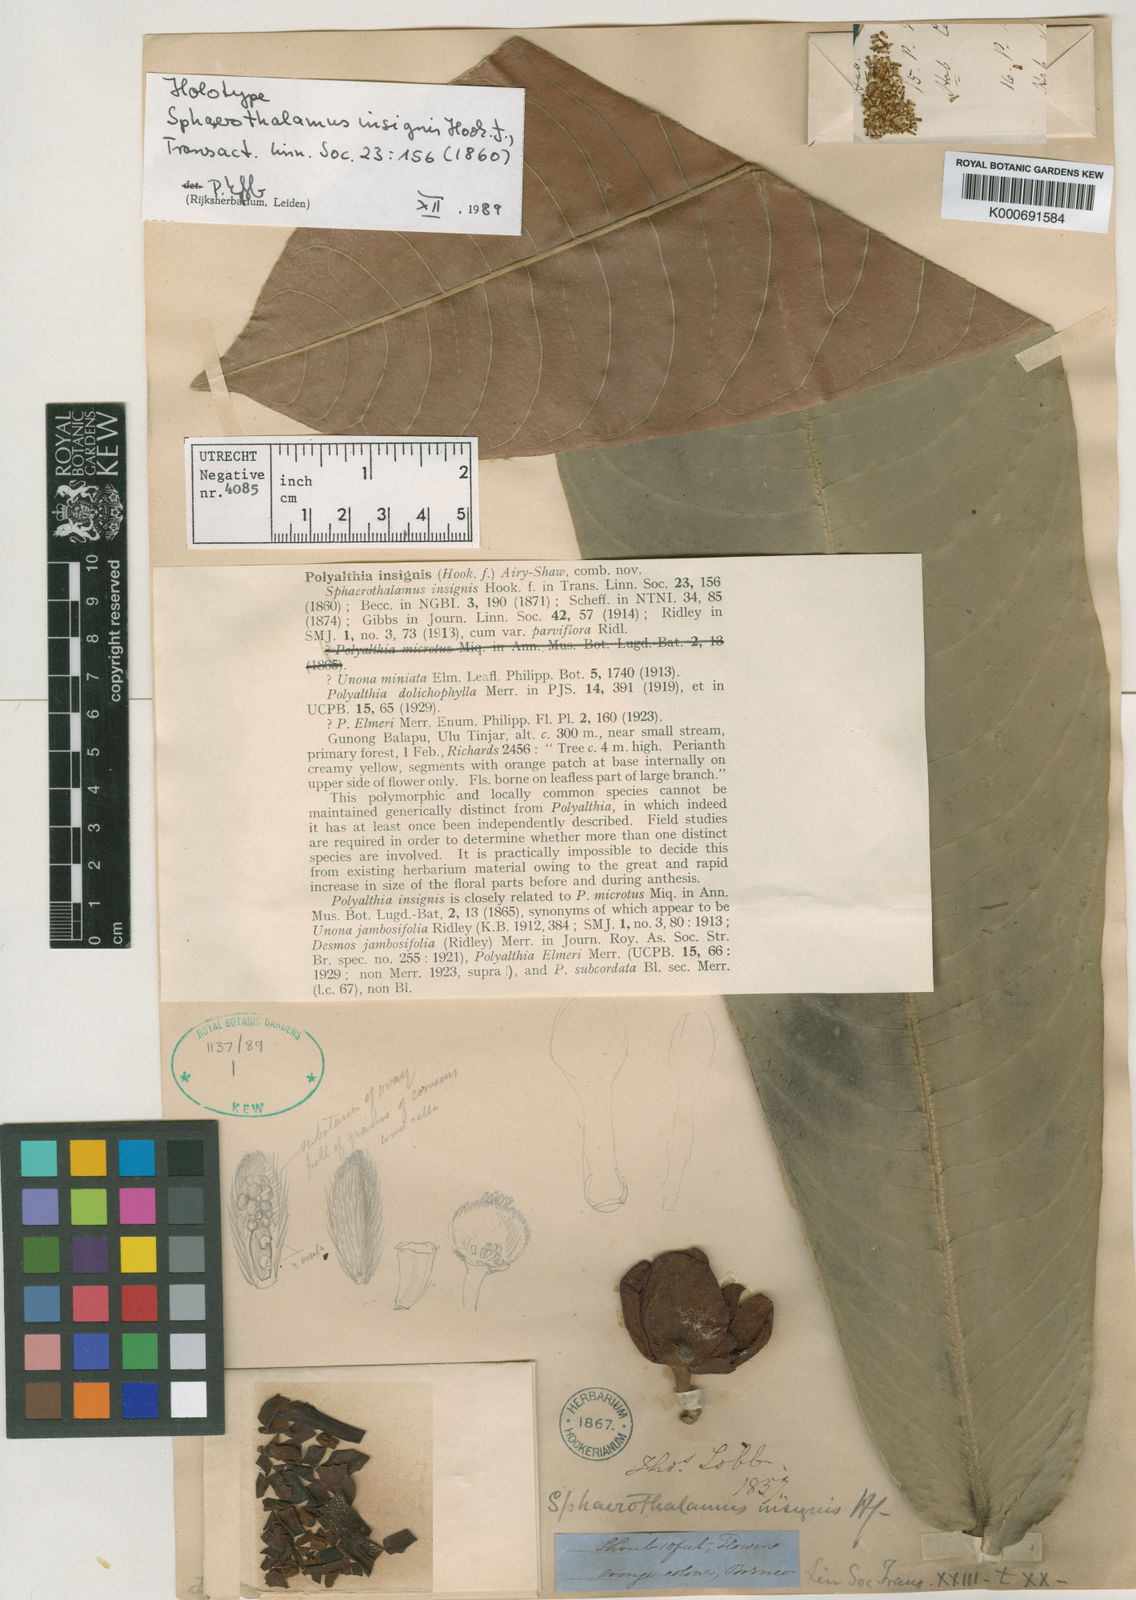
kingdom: Plantae
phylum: Tracheophyta
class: Magnoliopsida
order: Magnoliales
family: Annonaceae
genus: Polyalthia
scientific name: Polyalthia insignis
